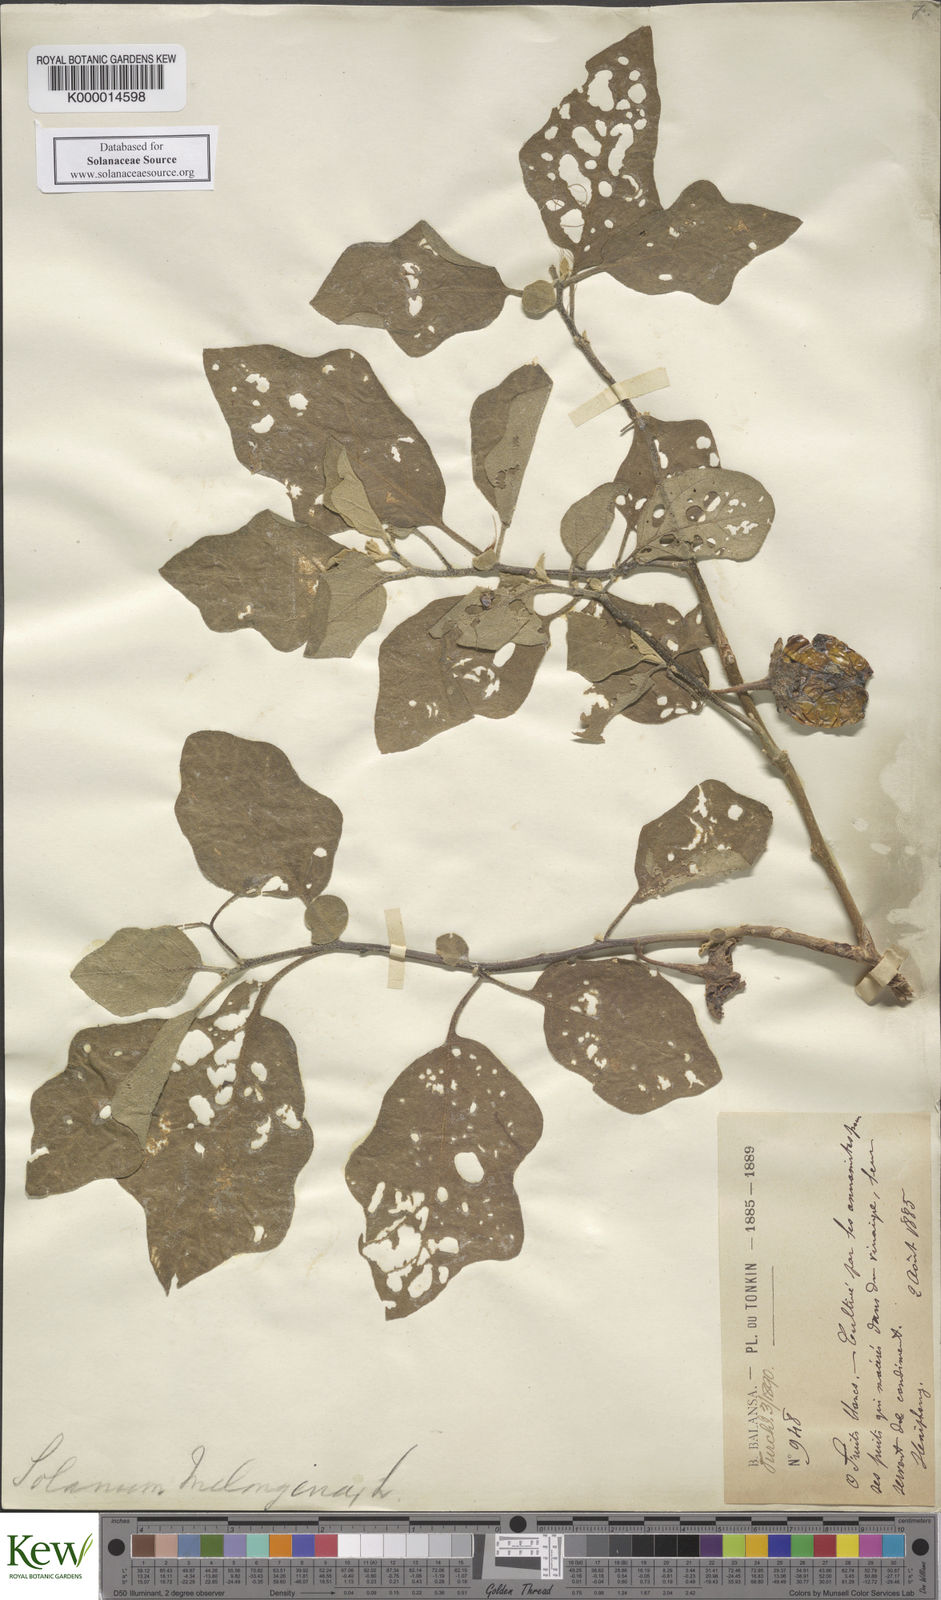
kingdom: Plantae
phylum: Tracheophyta
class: Magnoliopsida
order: Solanales
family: Solanaceae
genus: Solanum
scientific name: Solanum insanum
